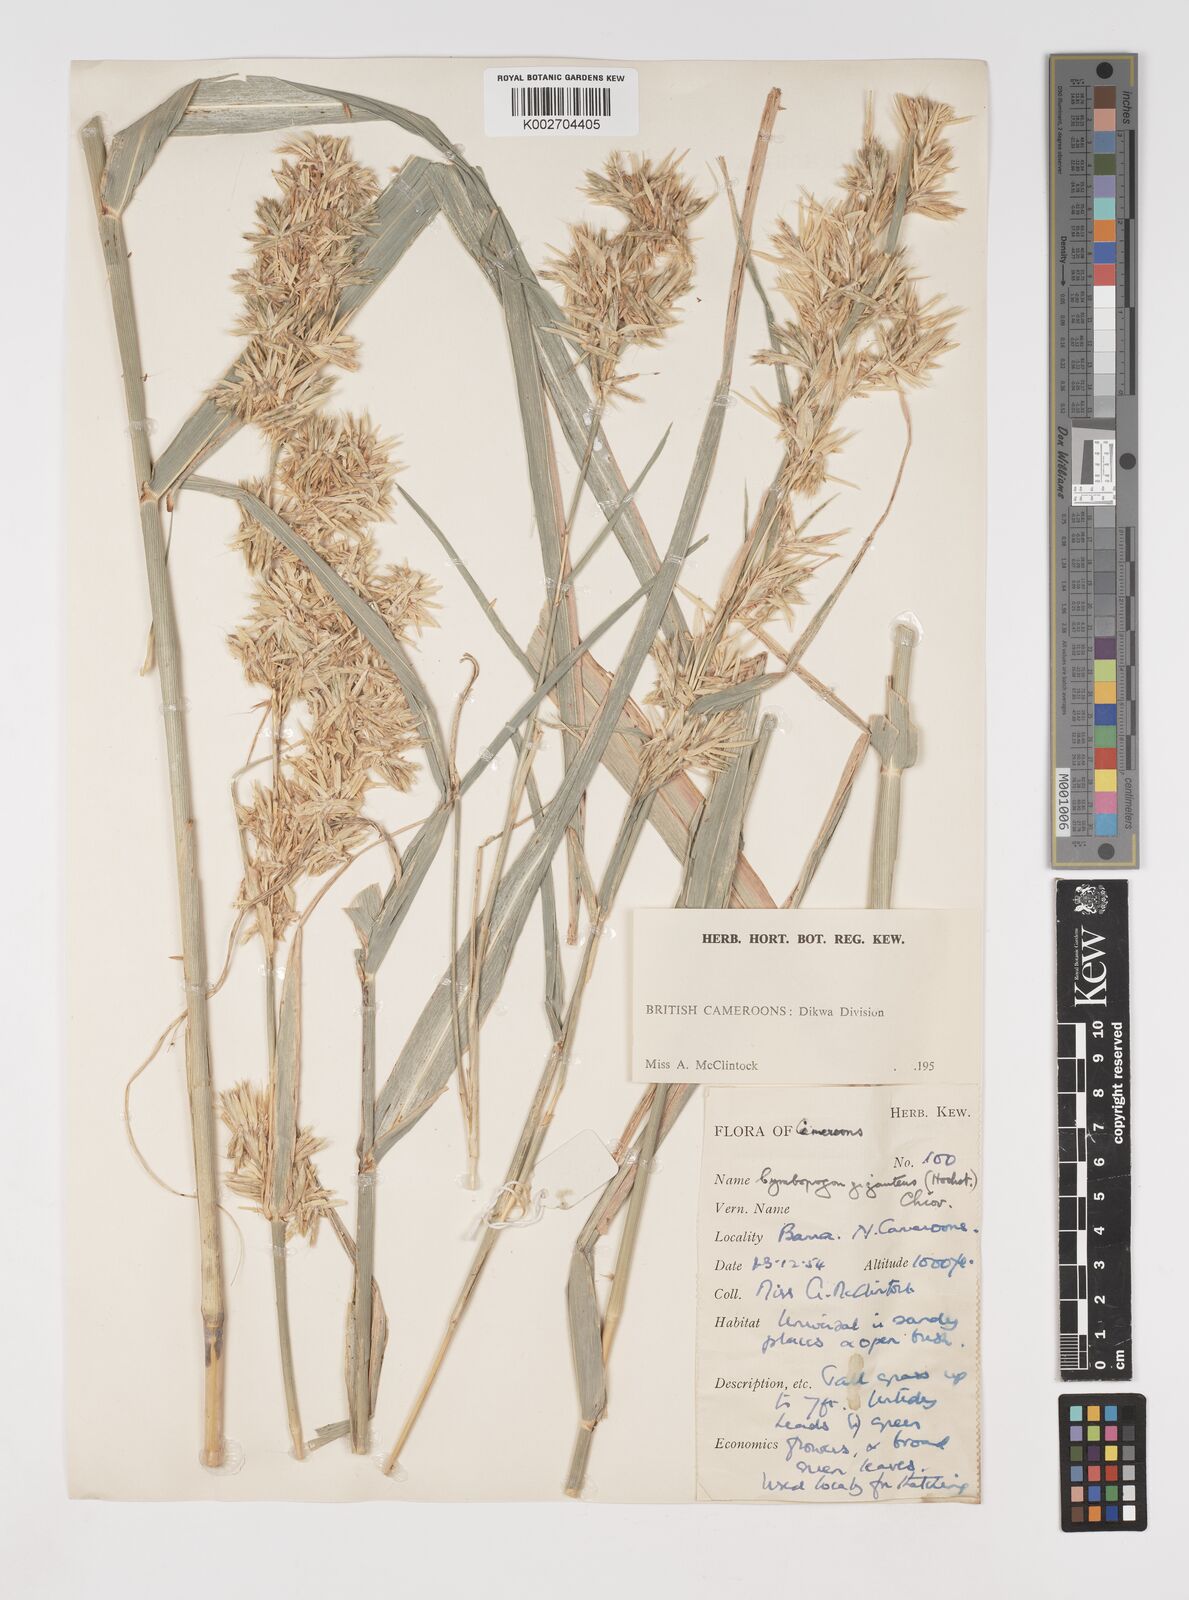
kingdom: Plantae
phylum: Tracheophyta
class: Liliopsida
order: Poales
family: Poaceae
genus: Cymbopogon
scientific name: Cymbopogon giganteus
